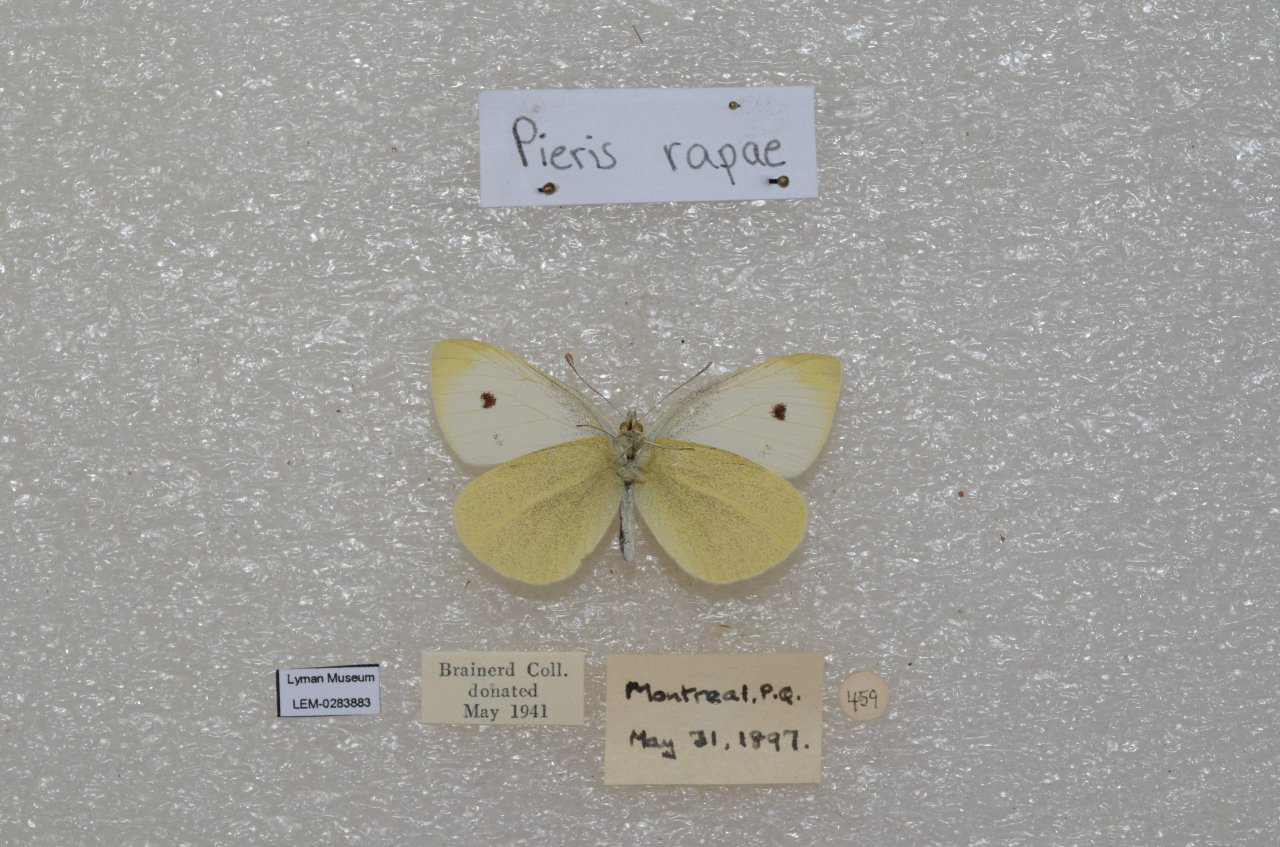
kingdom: Animalia
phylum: Arthropoda
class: Insecta
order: Lepidoptera
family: Pieridae
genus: Pieris
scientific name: Pieris rapae
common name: Cabbage White
